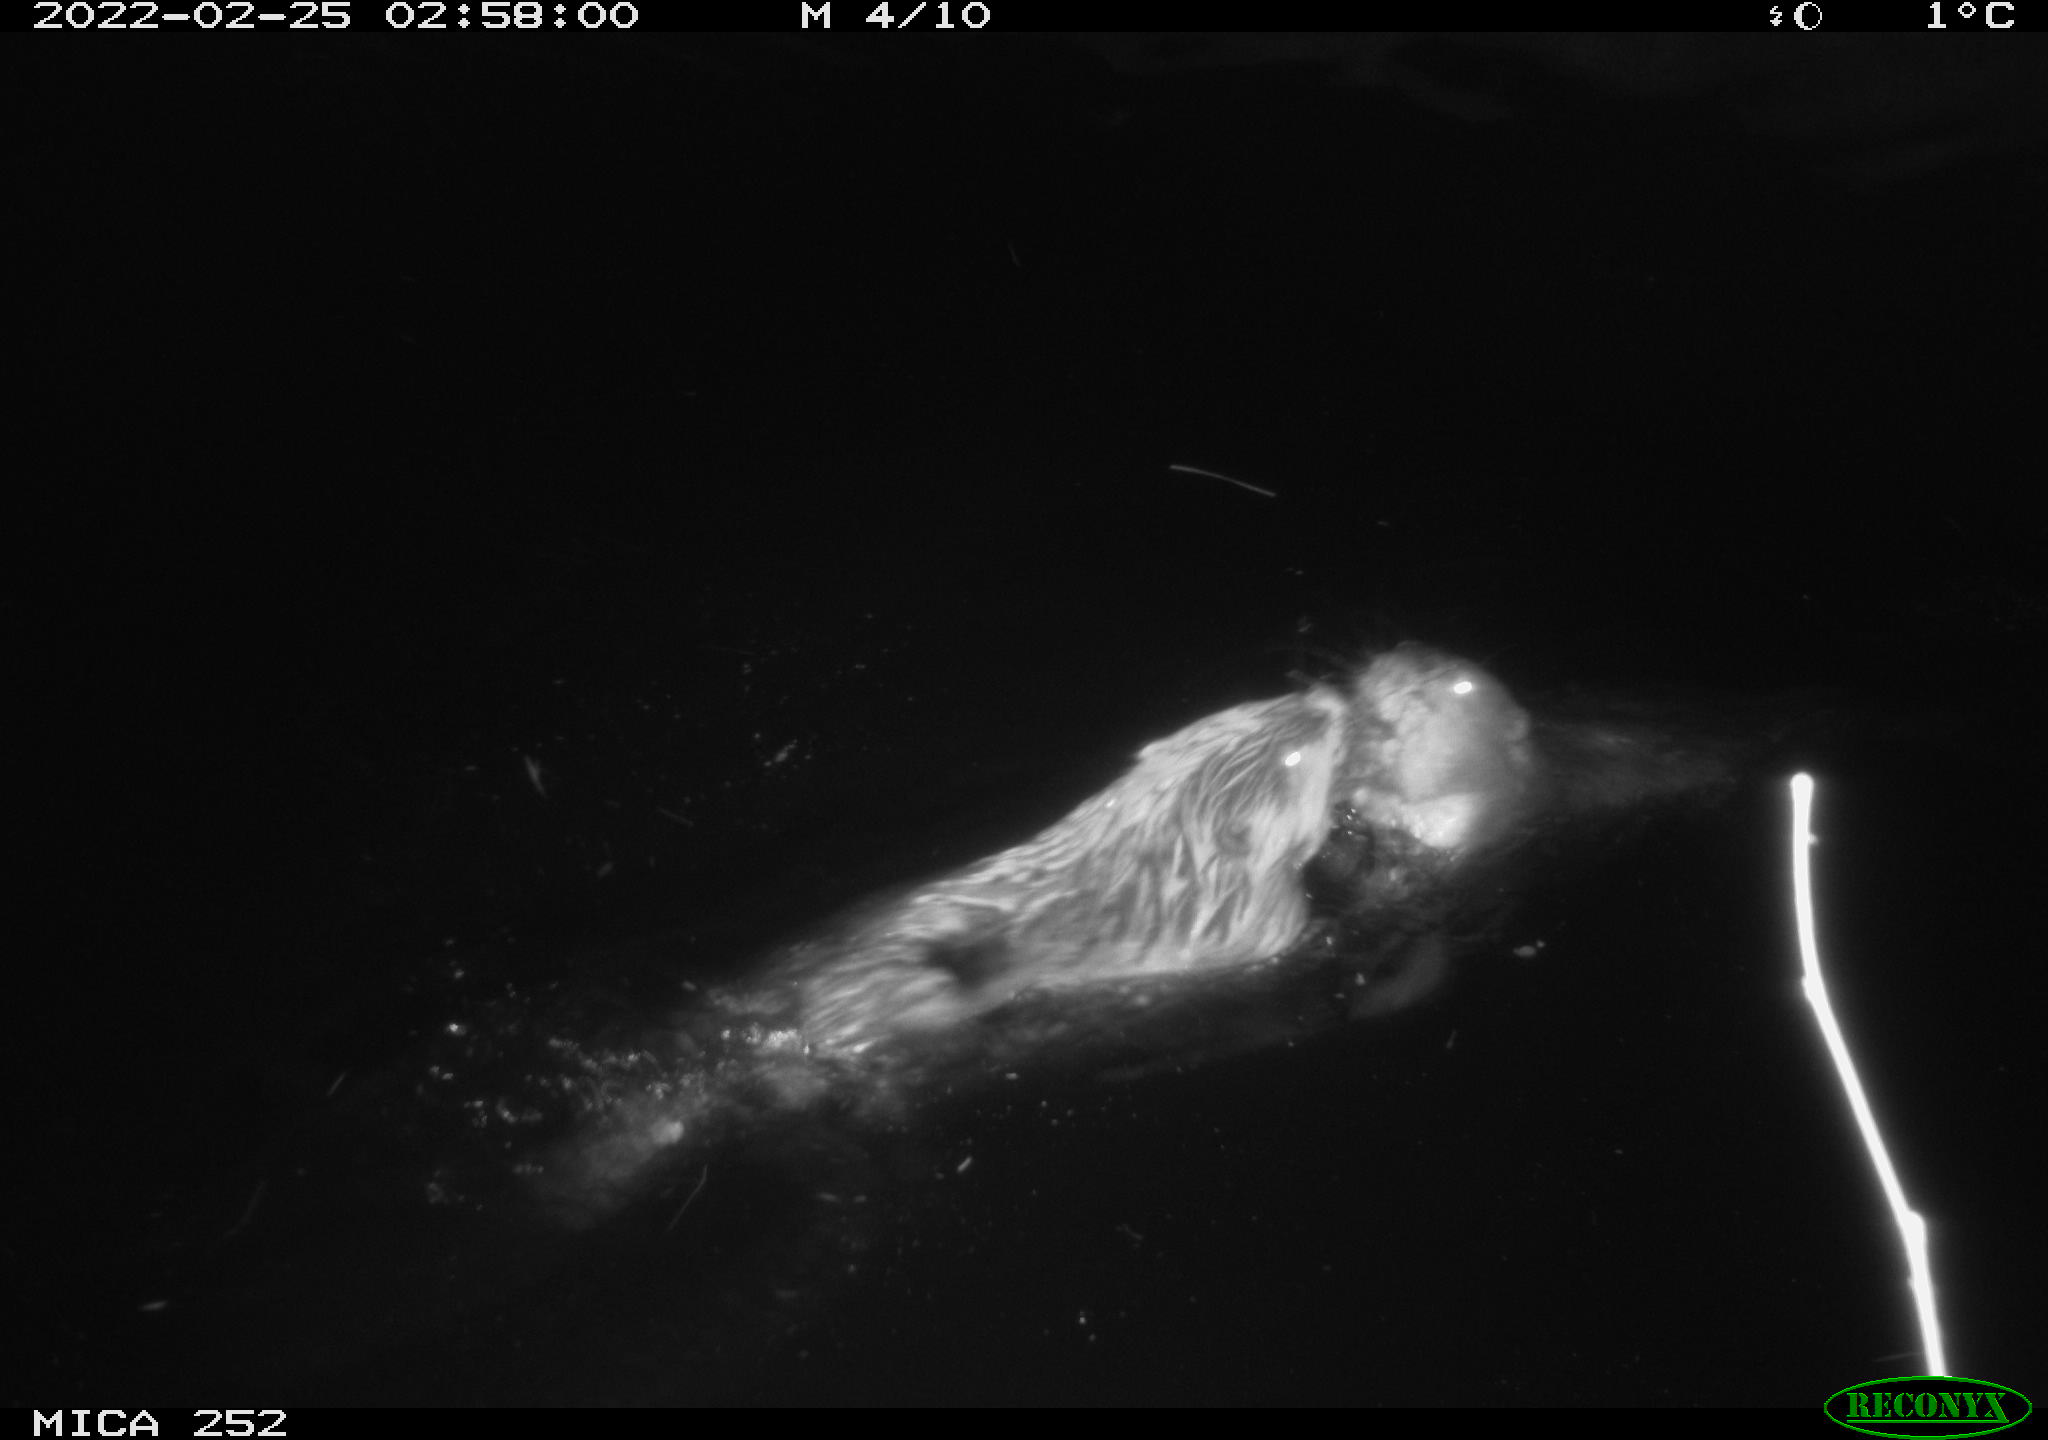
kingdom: Animalia
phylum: Chordata
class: Mammalia
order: Rodentia
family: Castoridae
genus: Castor
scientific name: Castor fiber
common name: Eurasian beaver
